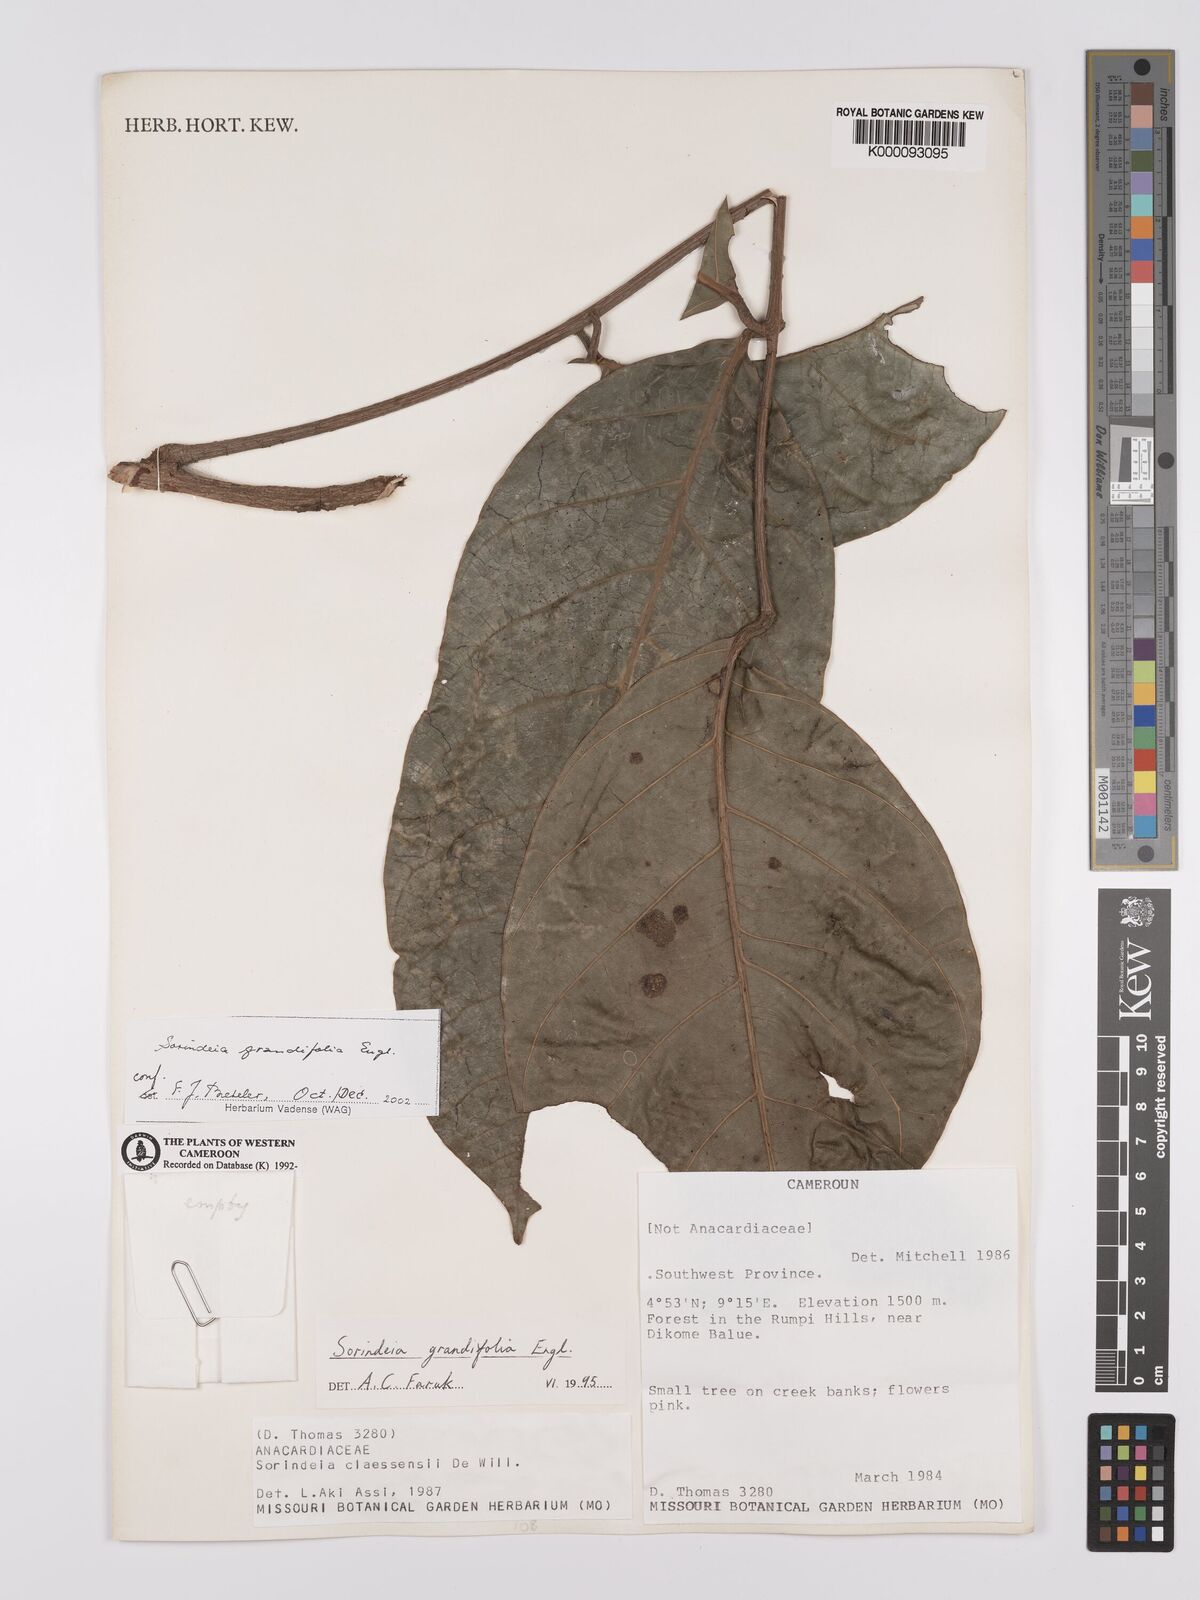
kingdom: Plantae
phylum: Tracheophyta
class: Magnoliopsida
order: Sapindales
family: Anacardiaceae
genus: Sorindeia
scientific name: Sorindeia grandifolia
